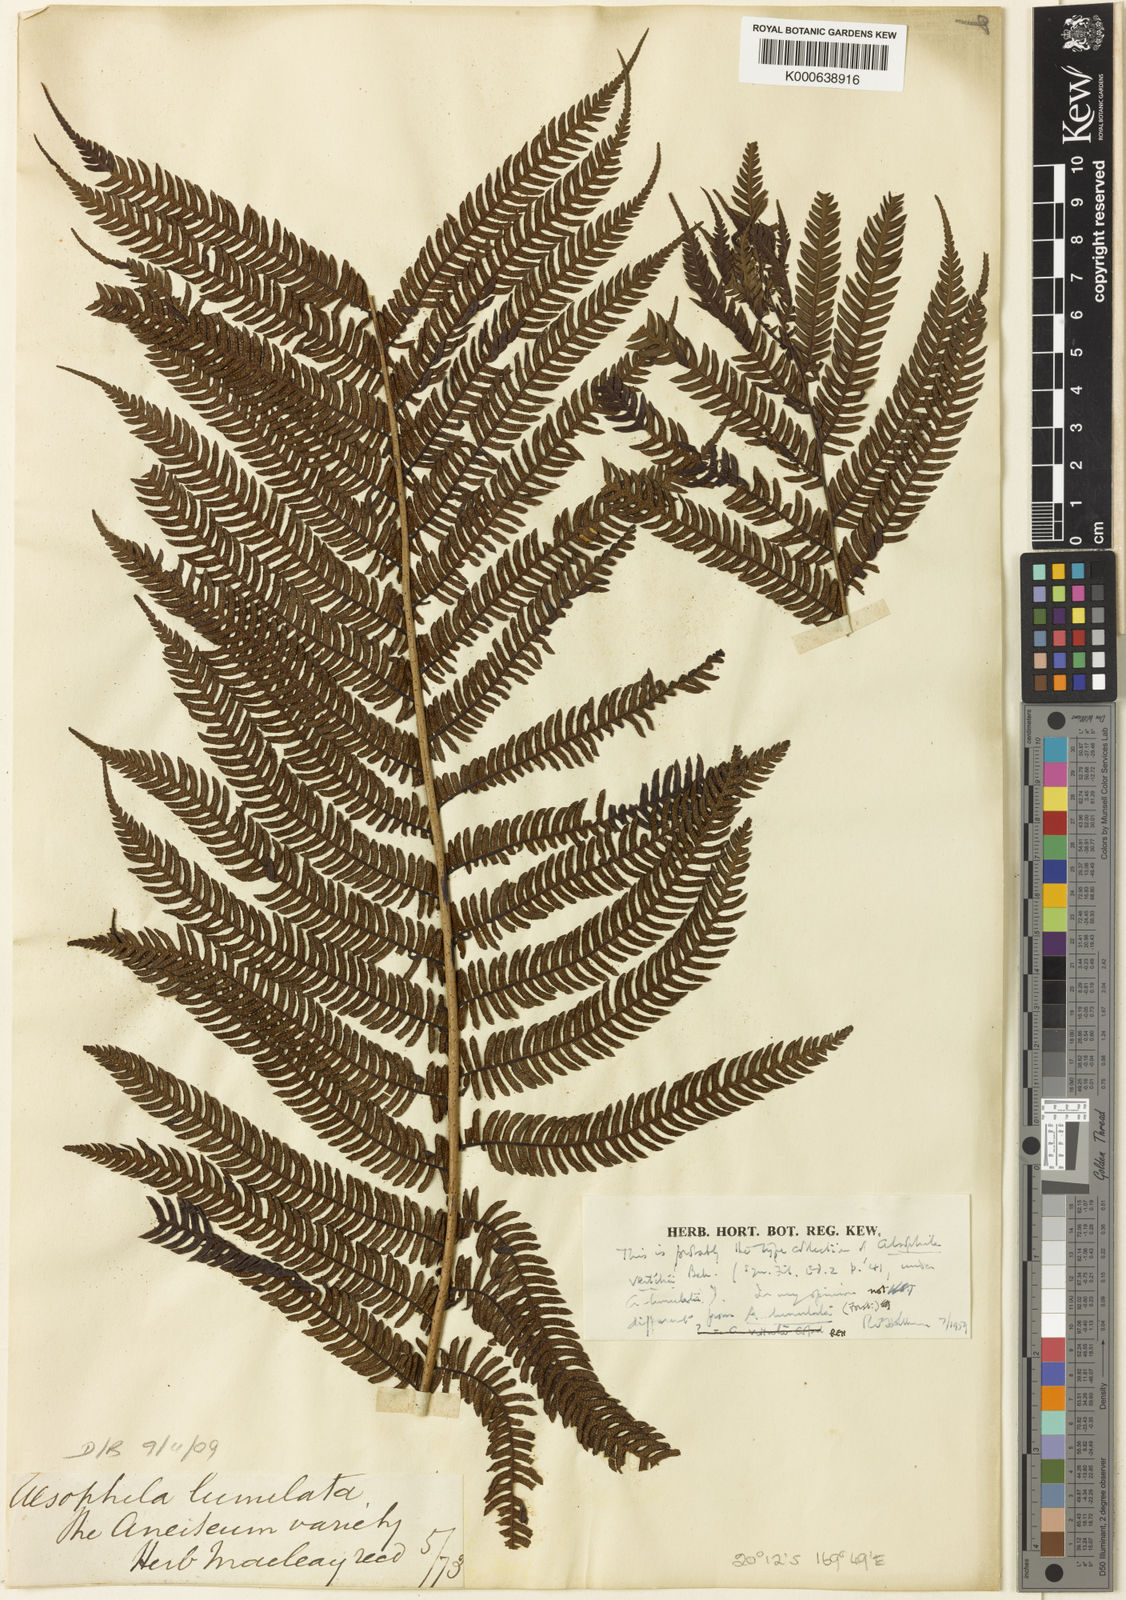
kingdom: Plantae
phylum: Tracheophyta
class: Polypodiopsida
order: Cyatheales
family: Cyatheaceae
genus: Sphaeropteris
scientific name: Sphaeropteris lunulata
